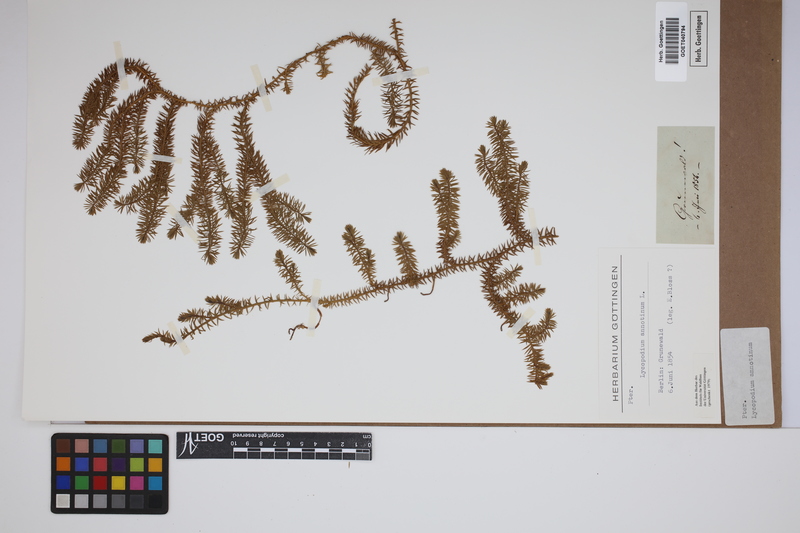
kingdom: Plantae
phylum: Tracheophyta
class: Lycopodiopsida
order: Lycopodiales
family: Lycopodiaceae
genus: Spinulum
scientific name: Spinulum annotinum
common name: Interrupted club-moss
